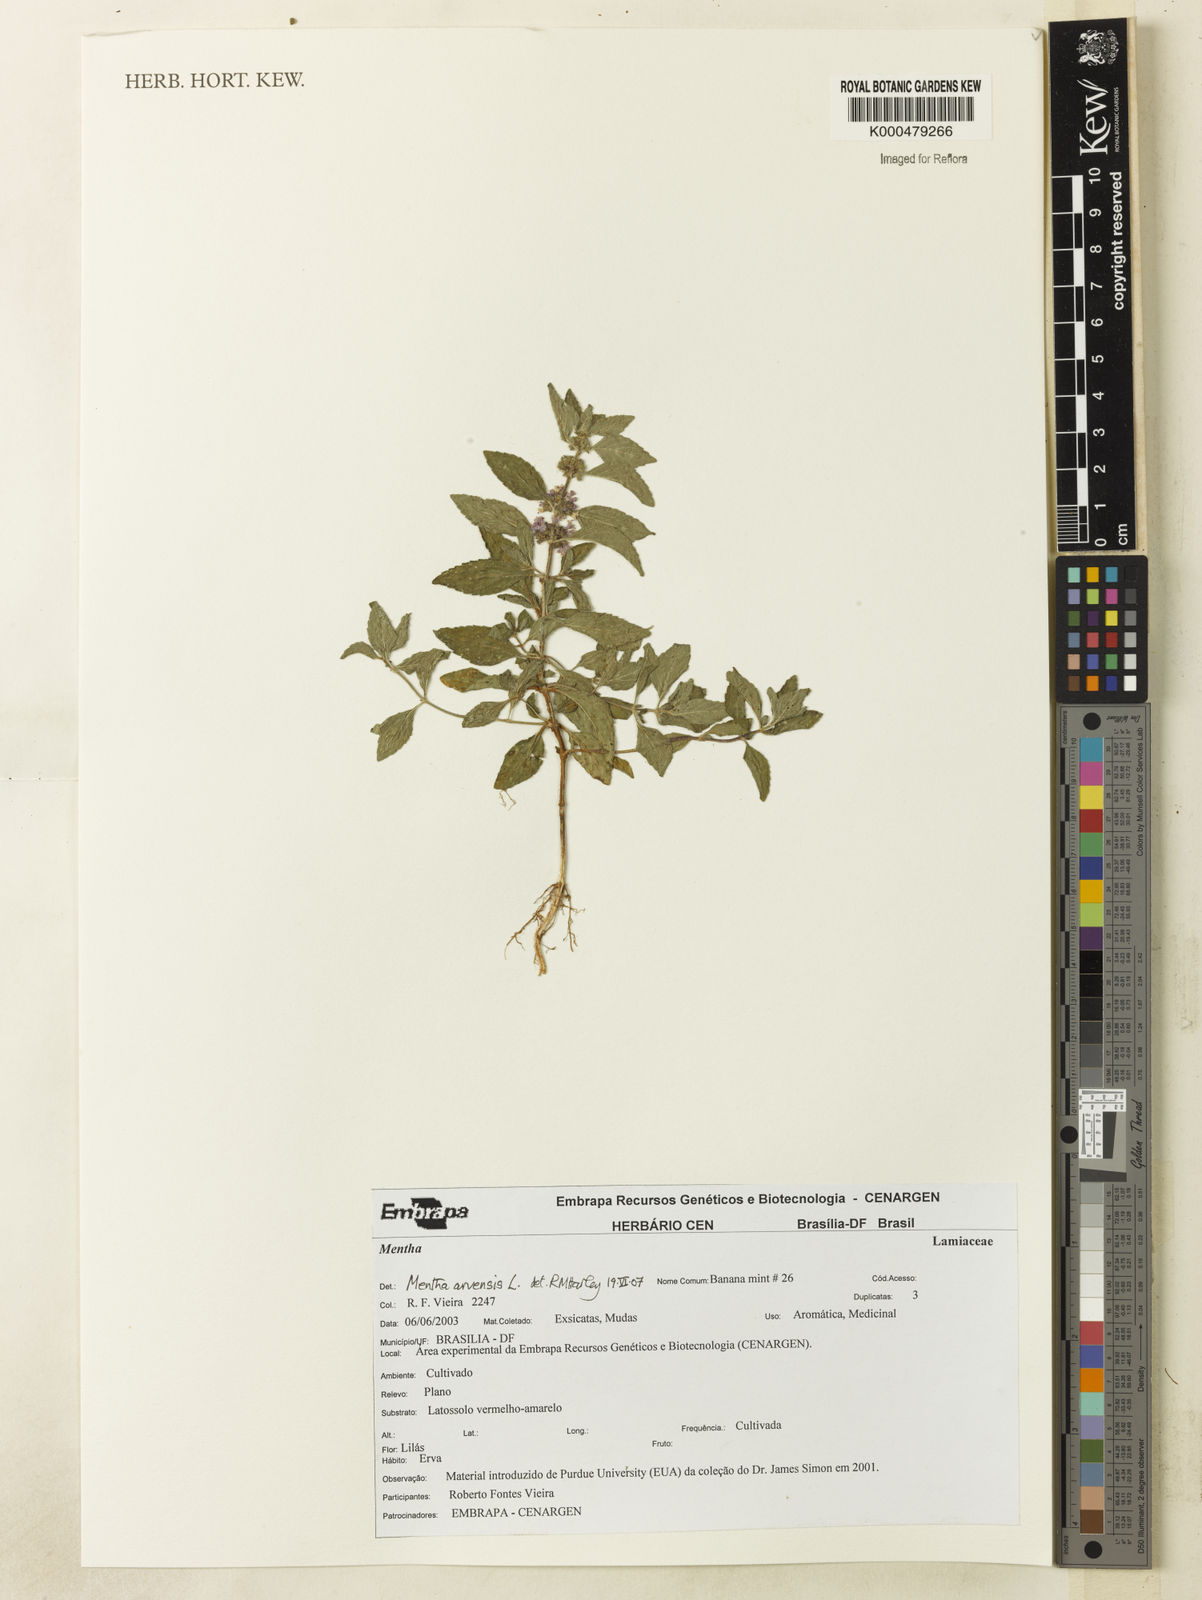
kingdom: Plantae
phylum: Tracheophyta
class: Magnoliopsida
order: Lamiales
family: Lamiaceae
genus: Mentha
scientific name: Mentha arvensis
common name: Corn mint
